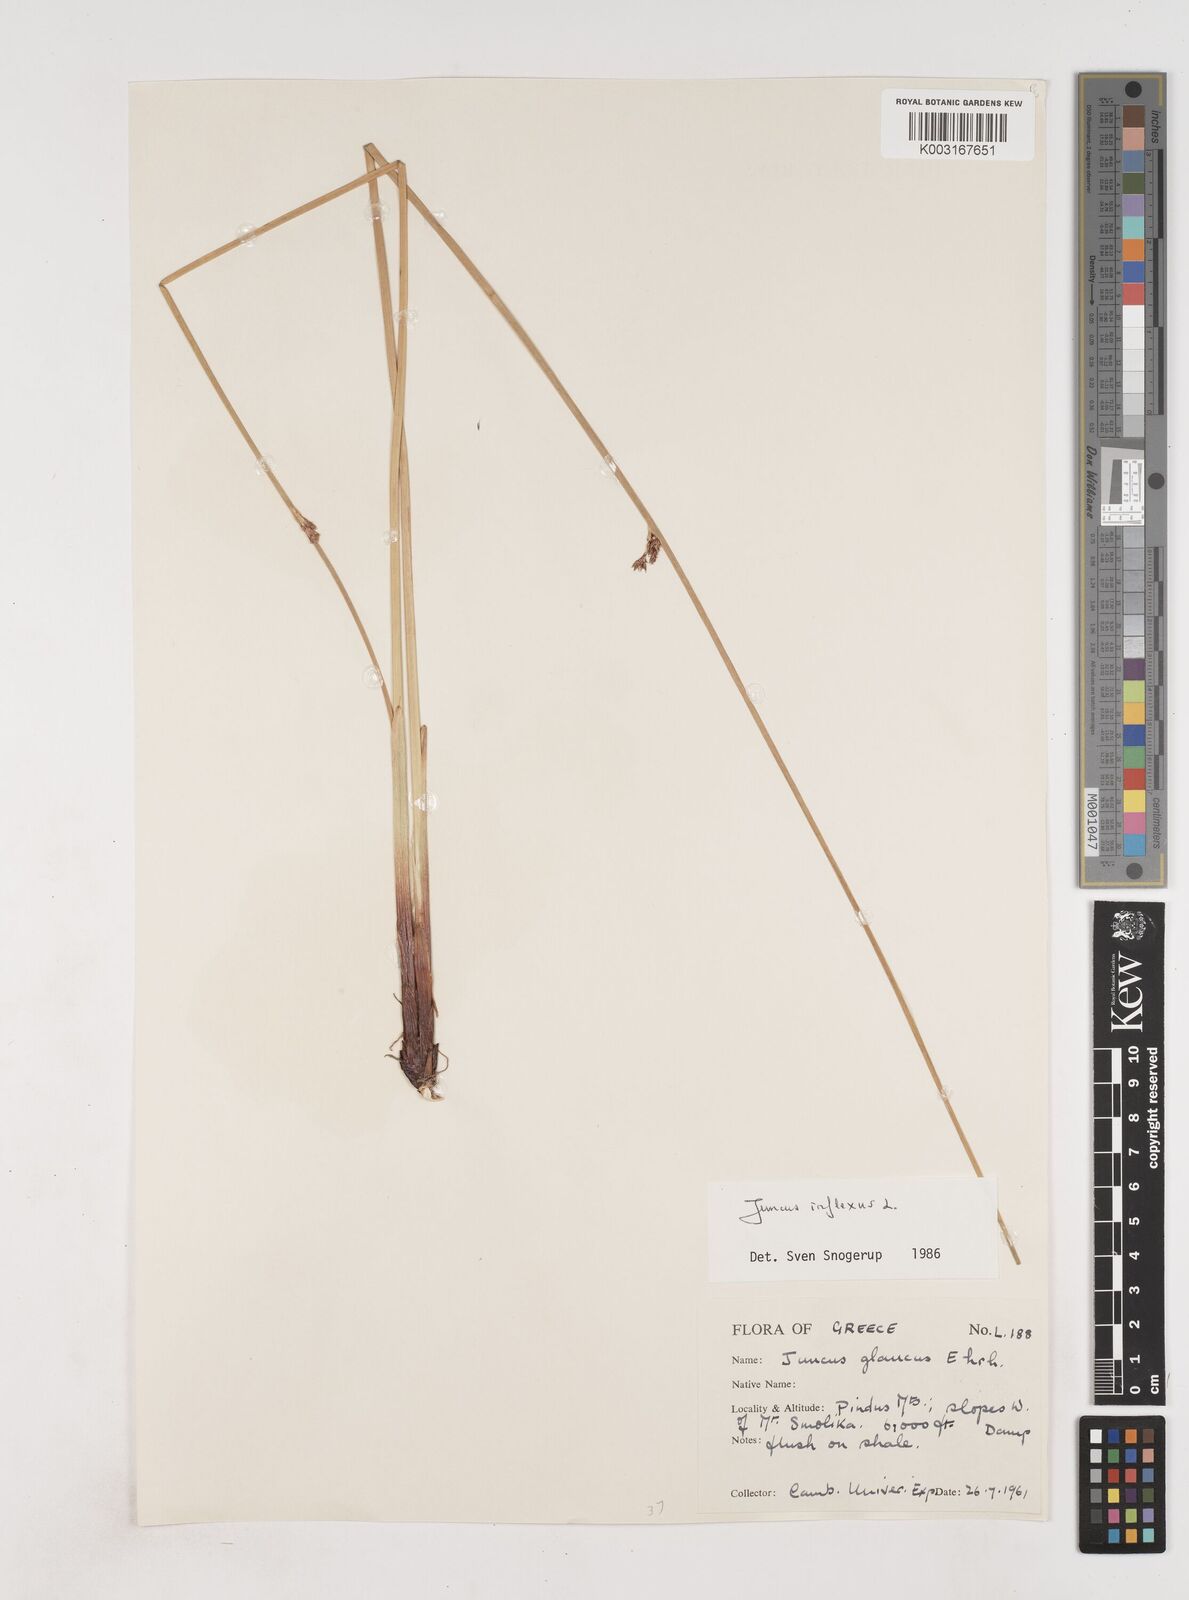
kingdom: Plantae
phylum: Tracheophyta
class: Liliopsida
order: Poales
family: Juncaceae
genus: Juncus
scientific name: Juncus inflexus
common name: Hard rush
